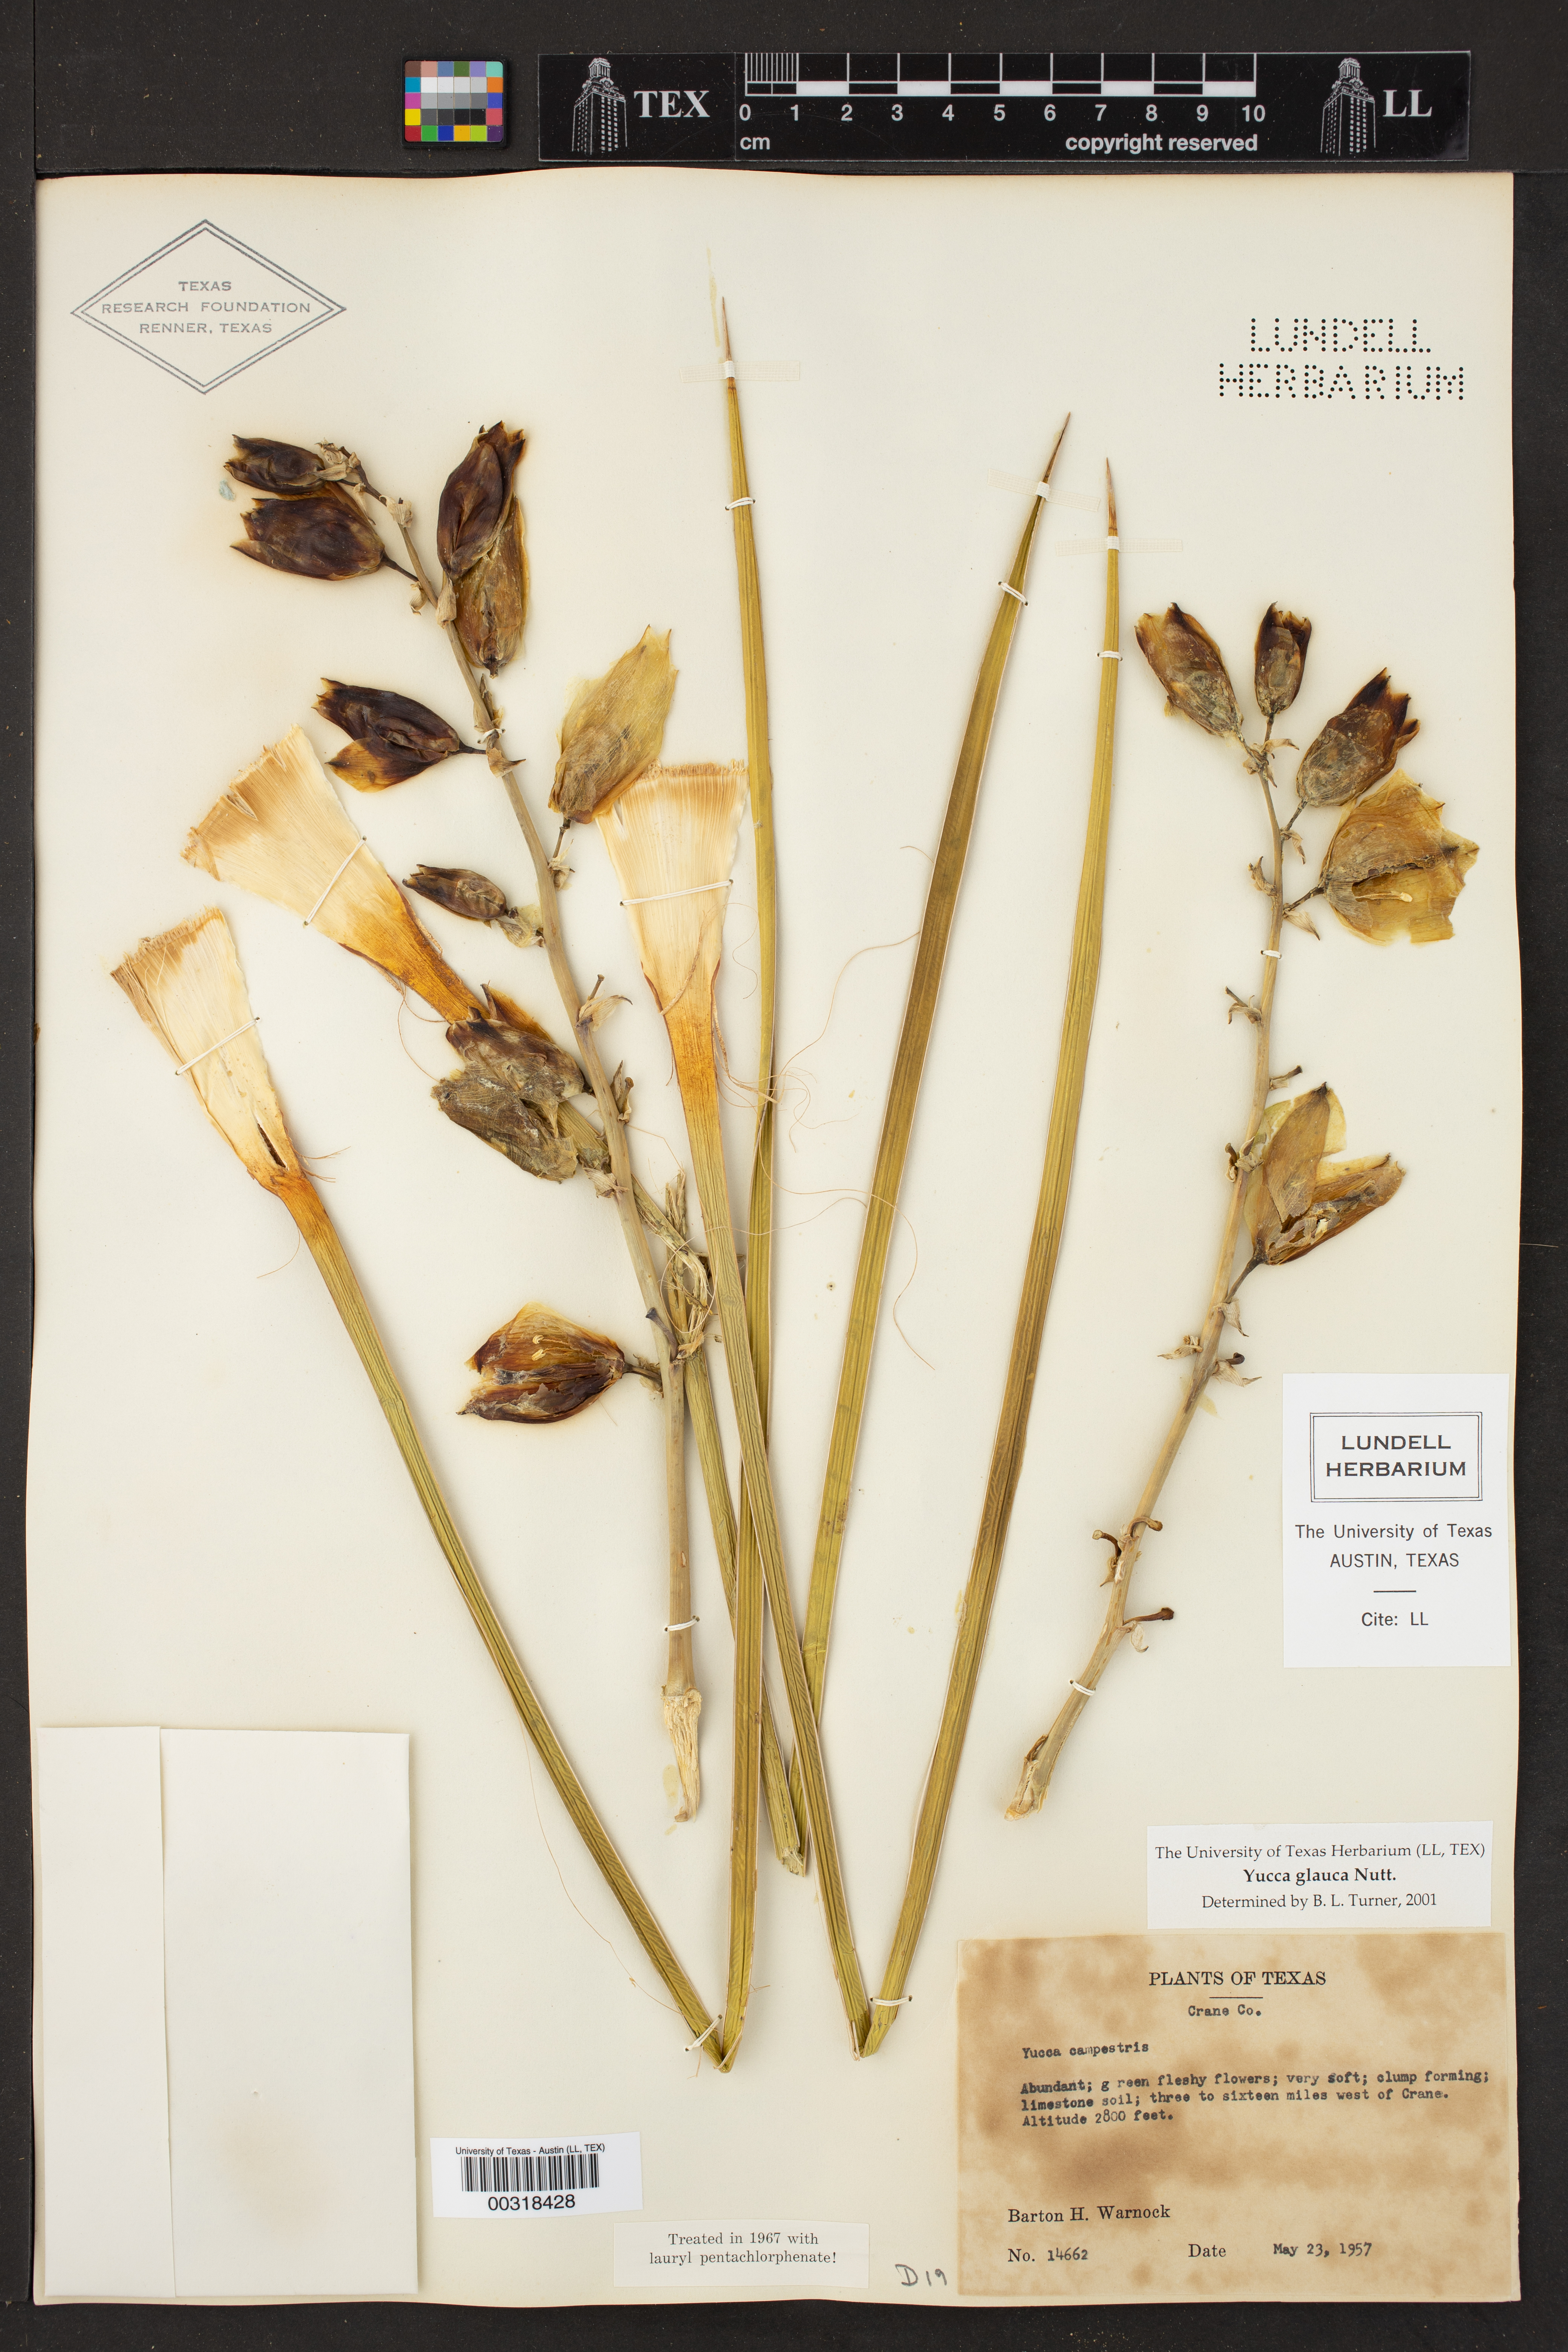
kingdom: Plantae
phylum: Tracheophyta
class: Liliopsida
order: Asparagales
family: Asparagaceae
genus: Yucca
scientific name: Yucca glauca
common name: Great plains yucca
